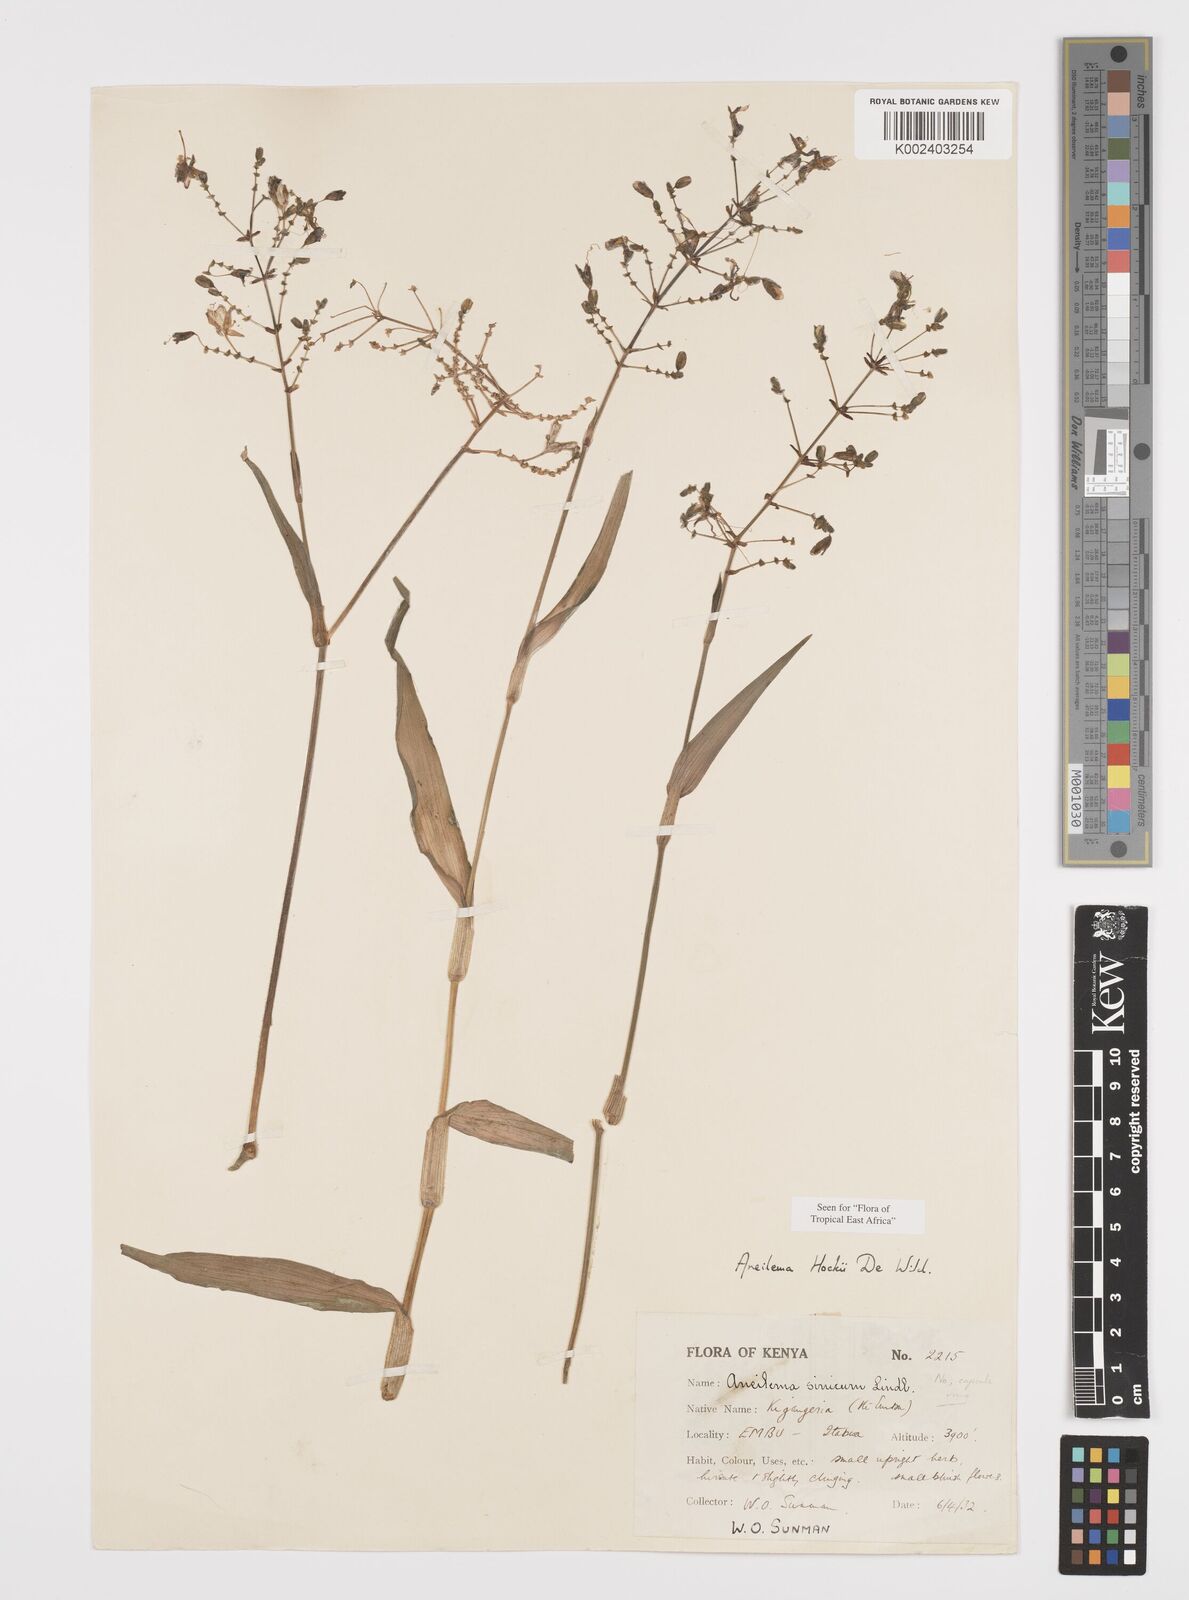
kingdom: Plantae
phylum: Tracheophyta
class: Liliopsida
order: Commelinales
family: Commelinaceae
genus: Aneilema
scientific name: Aneilema hockii
